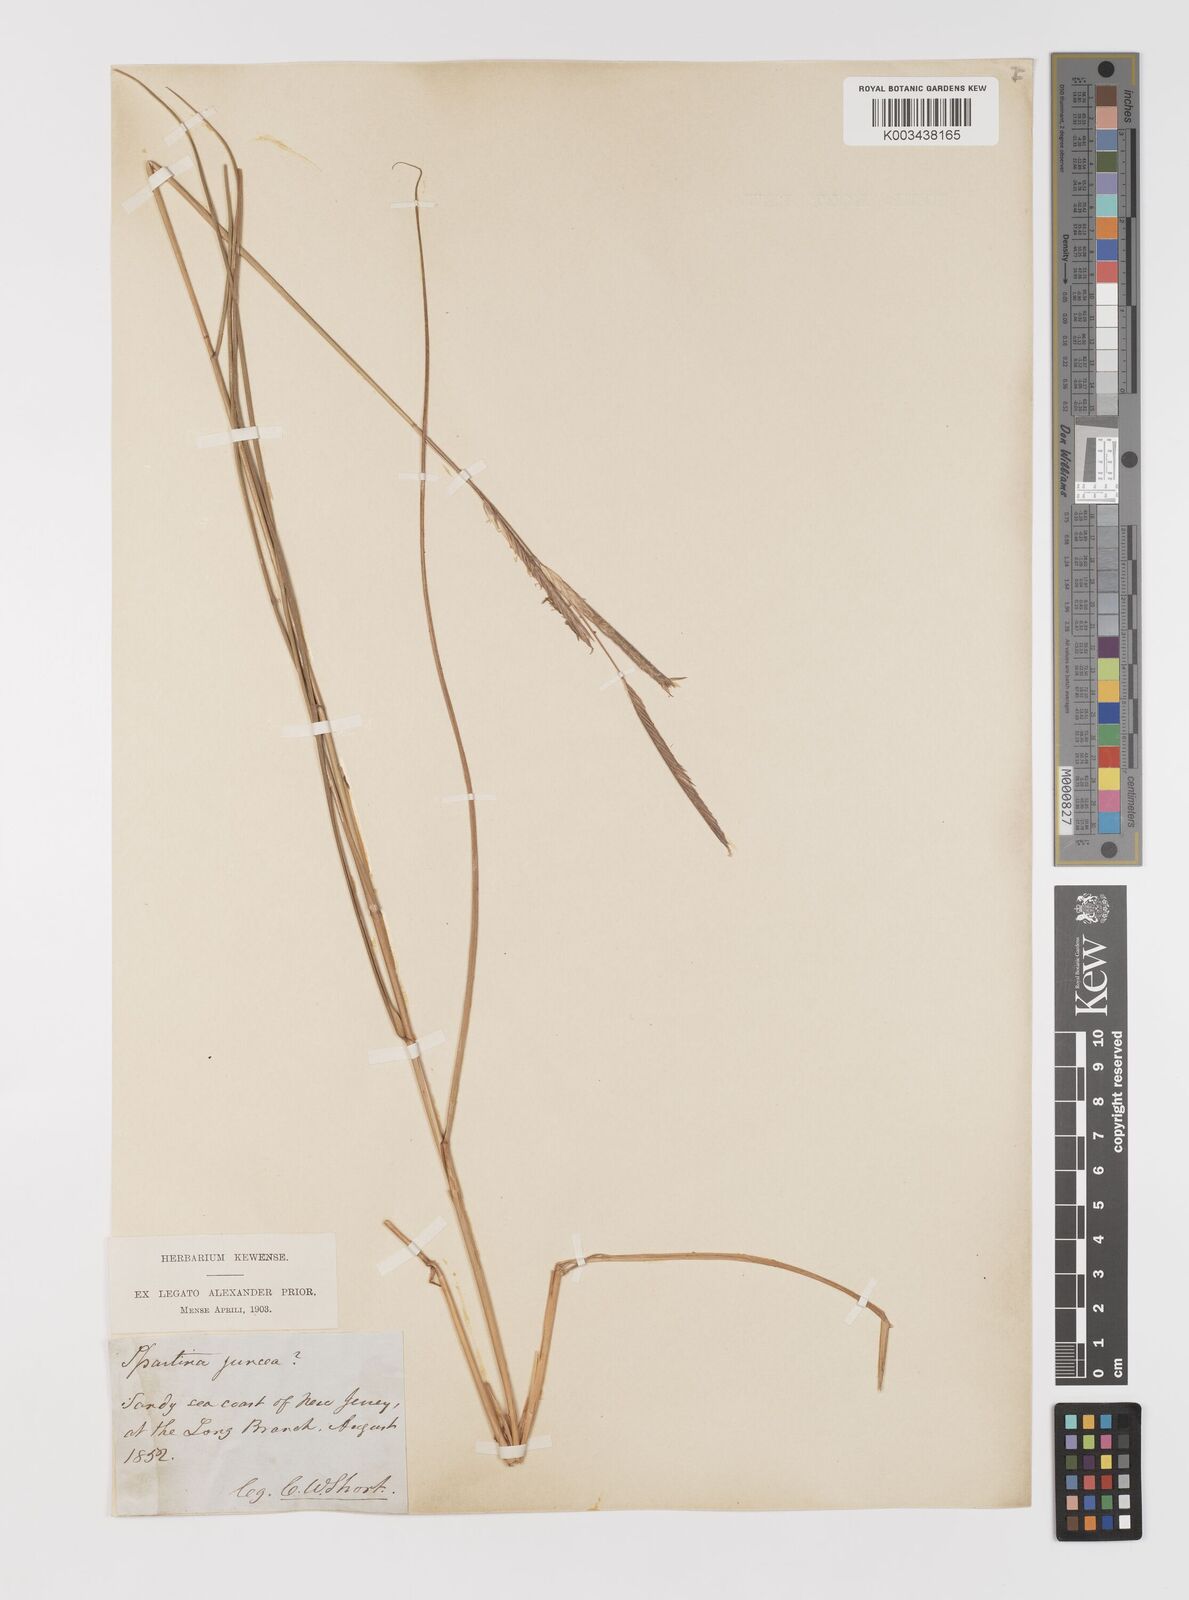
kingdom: Plantae
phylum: Tracheophyta
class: Liliopsida
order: Poales
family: Poaceae
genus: Sporobolus
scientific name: Sporobolus pumilus
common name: Highwater grass
